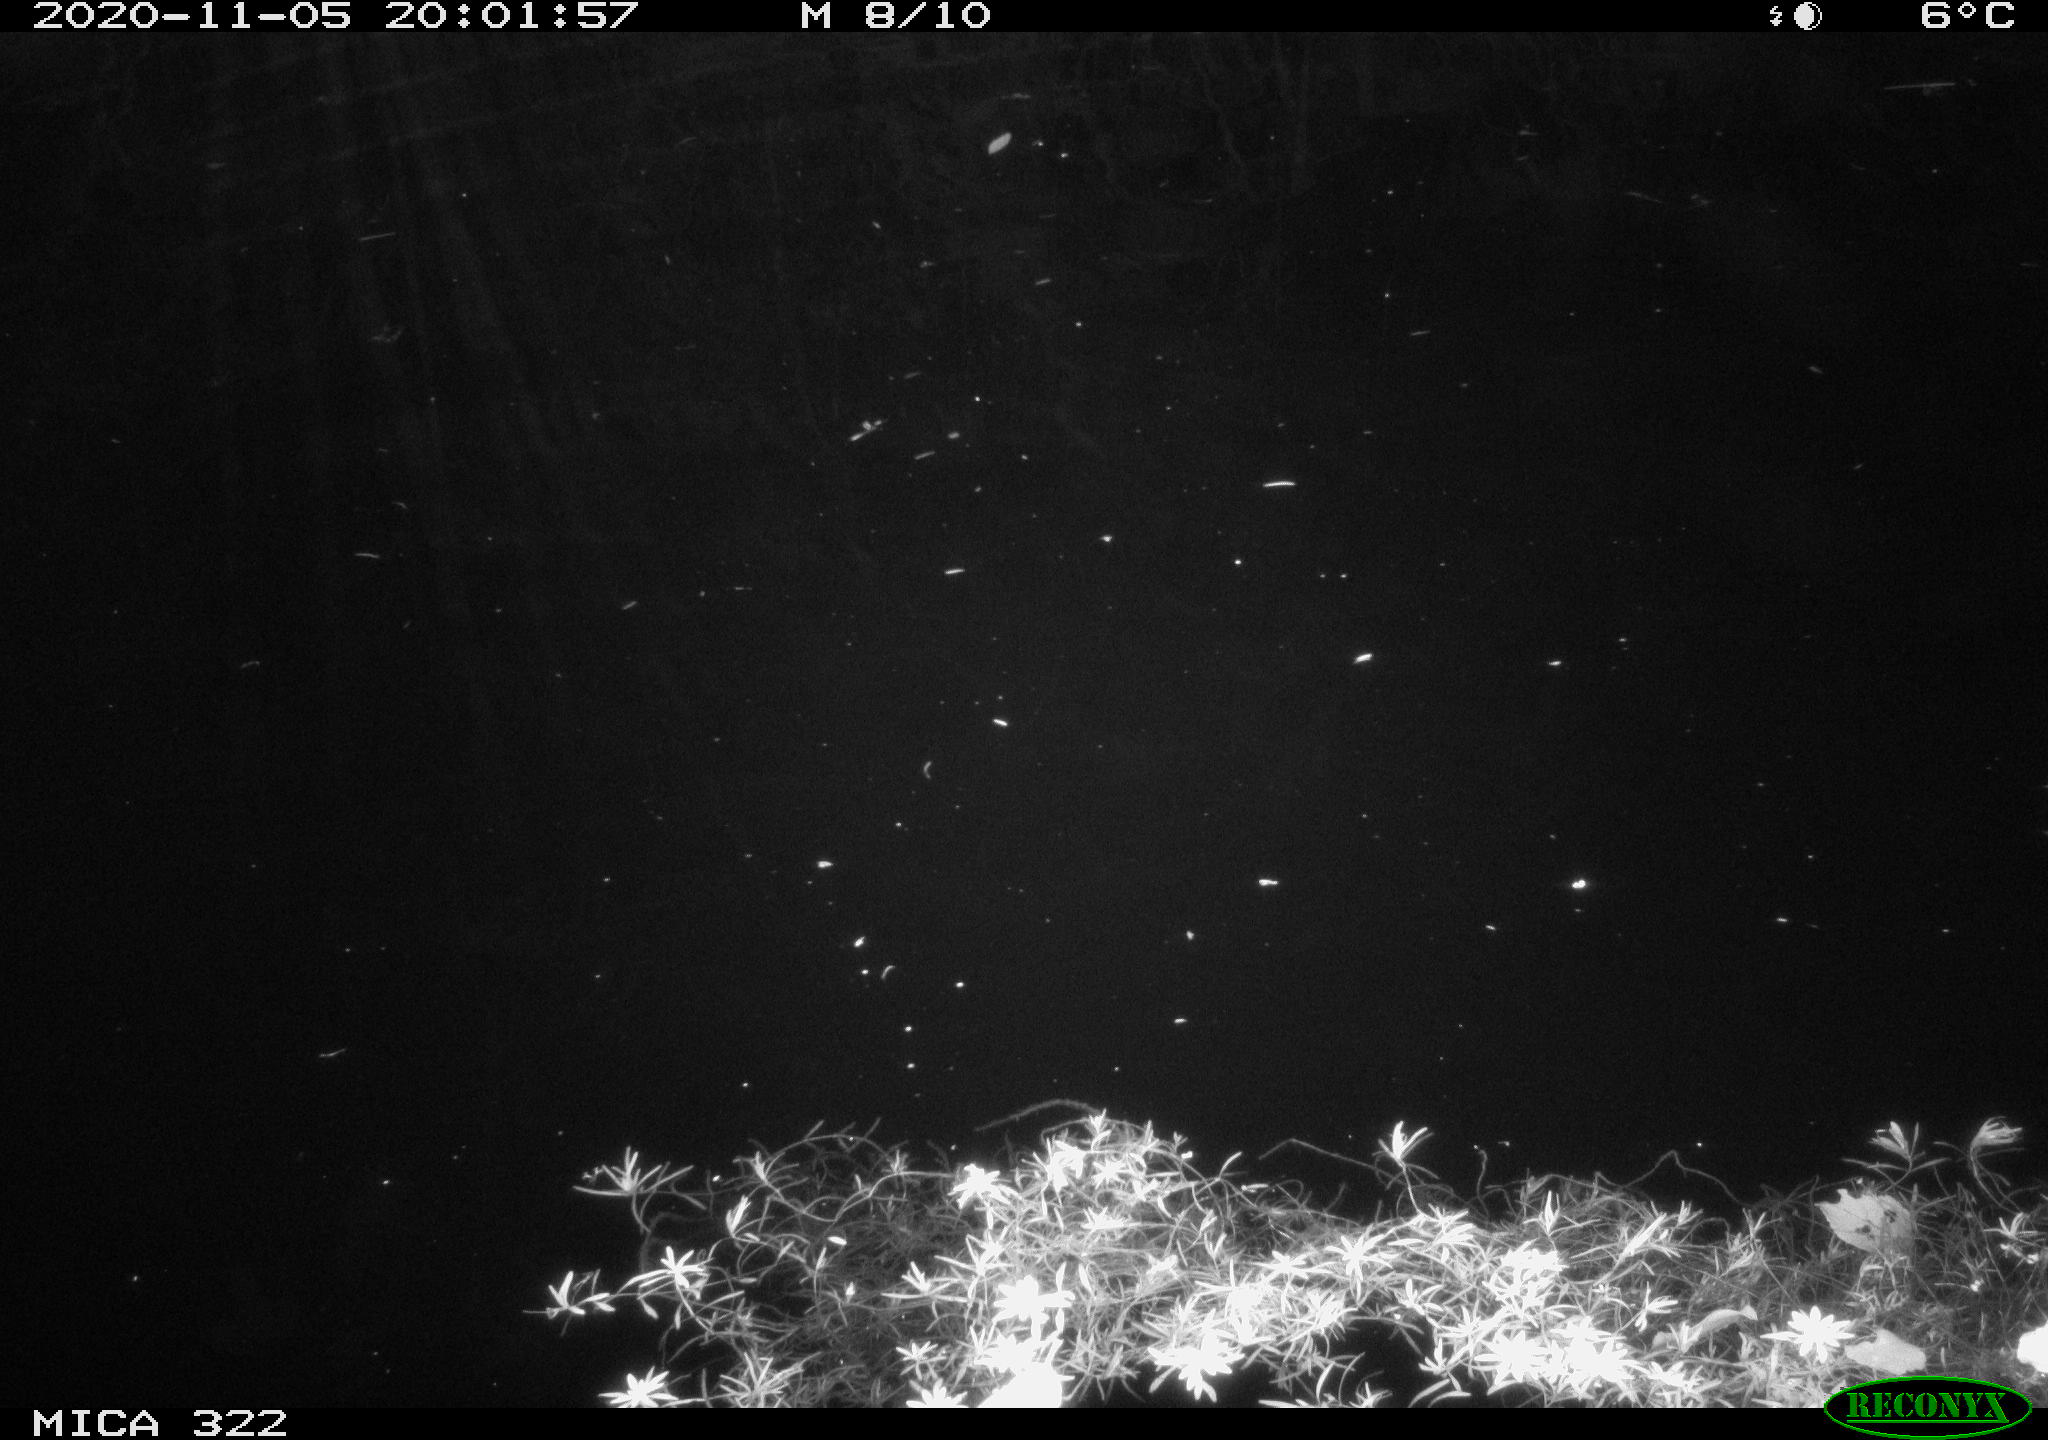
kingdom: Animalia
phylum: Chordata
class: Mammalia
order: Rodentia
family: Muridae
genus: Rattus
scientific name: Rattus norvegicus
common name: Brown rat
